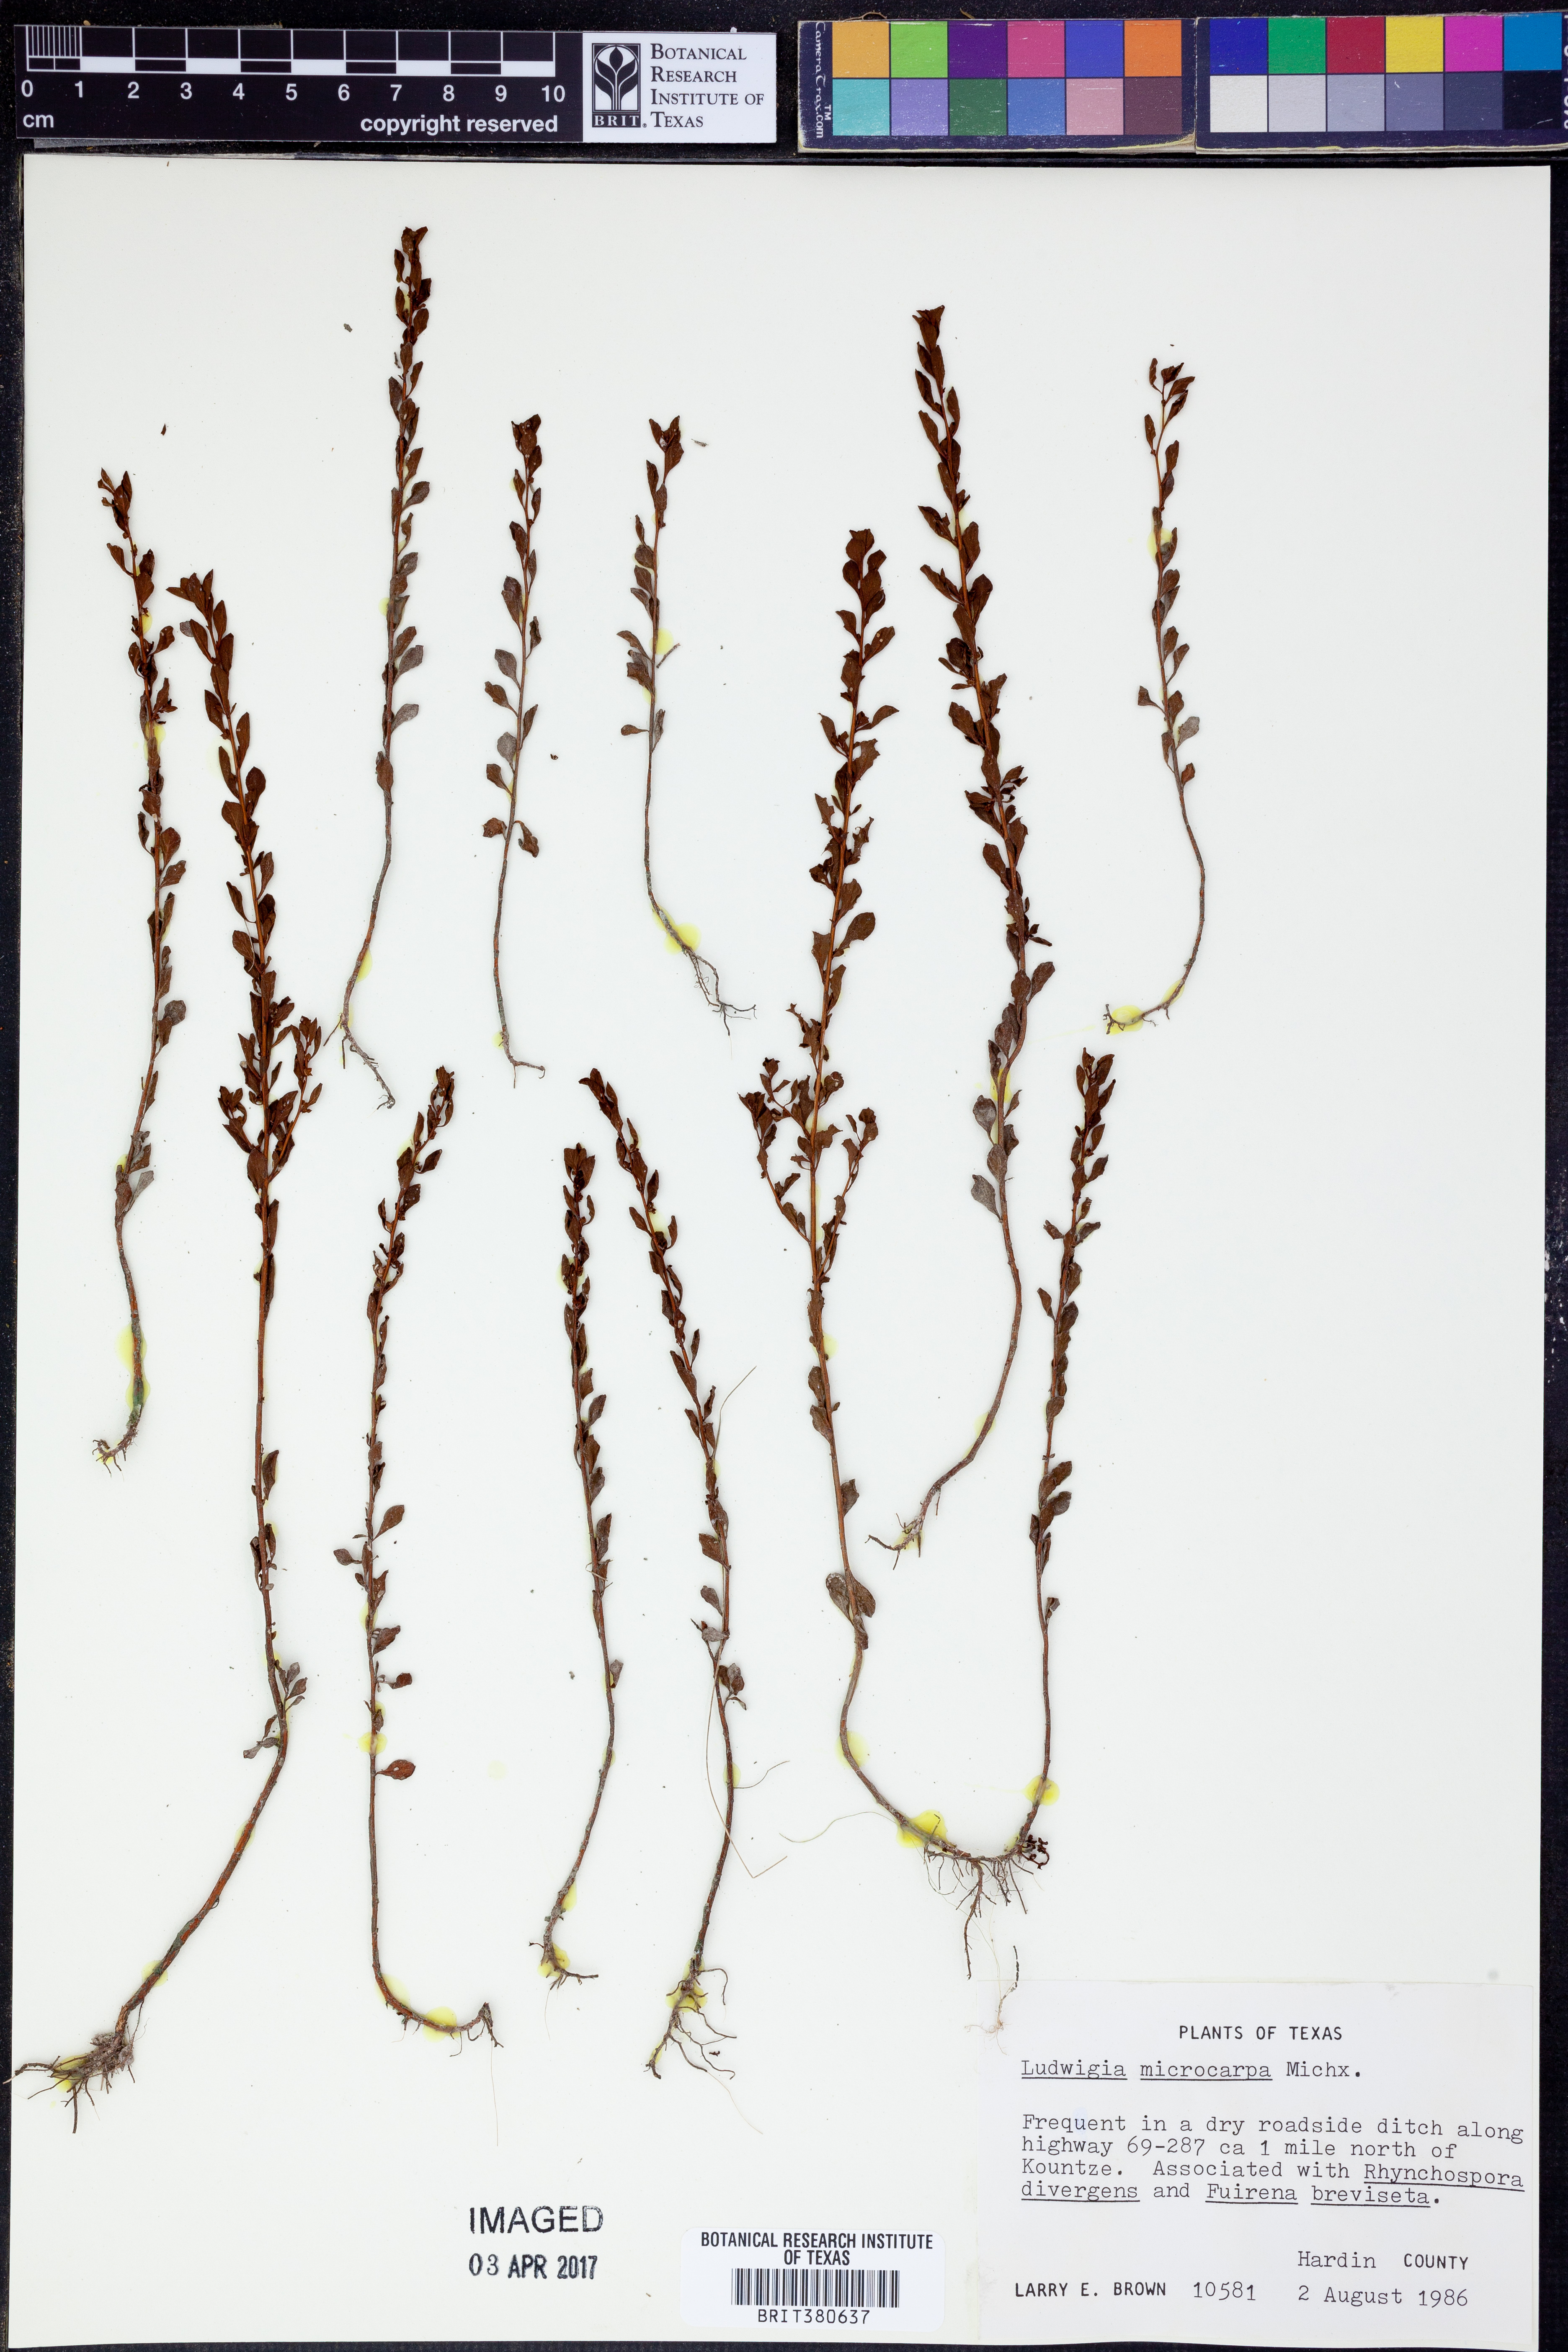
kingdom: Plantae
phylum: Tracheophyta
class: Magnoliopsida
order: Myrtales
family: Onagraceae
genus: Ludwigia
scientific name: Ludwigia microcarpa
